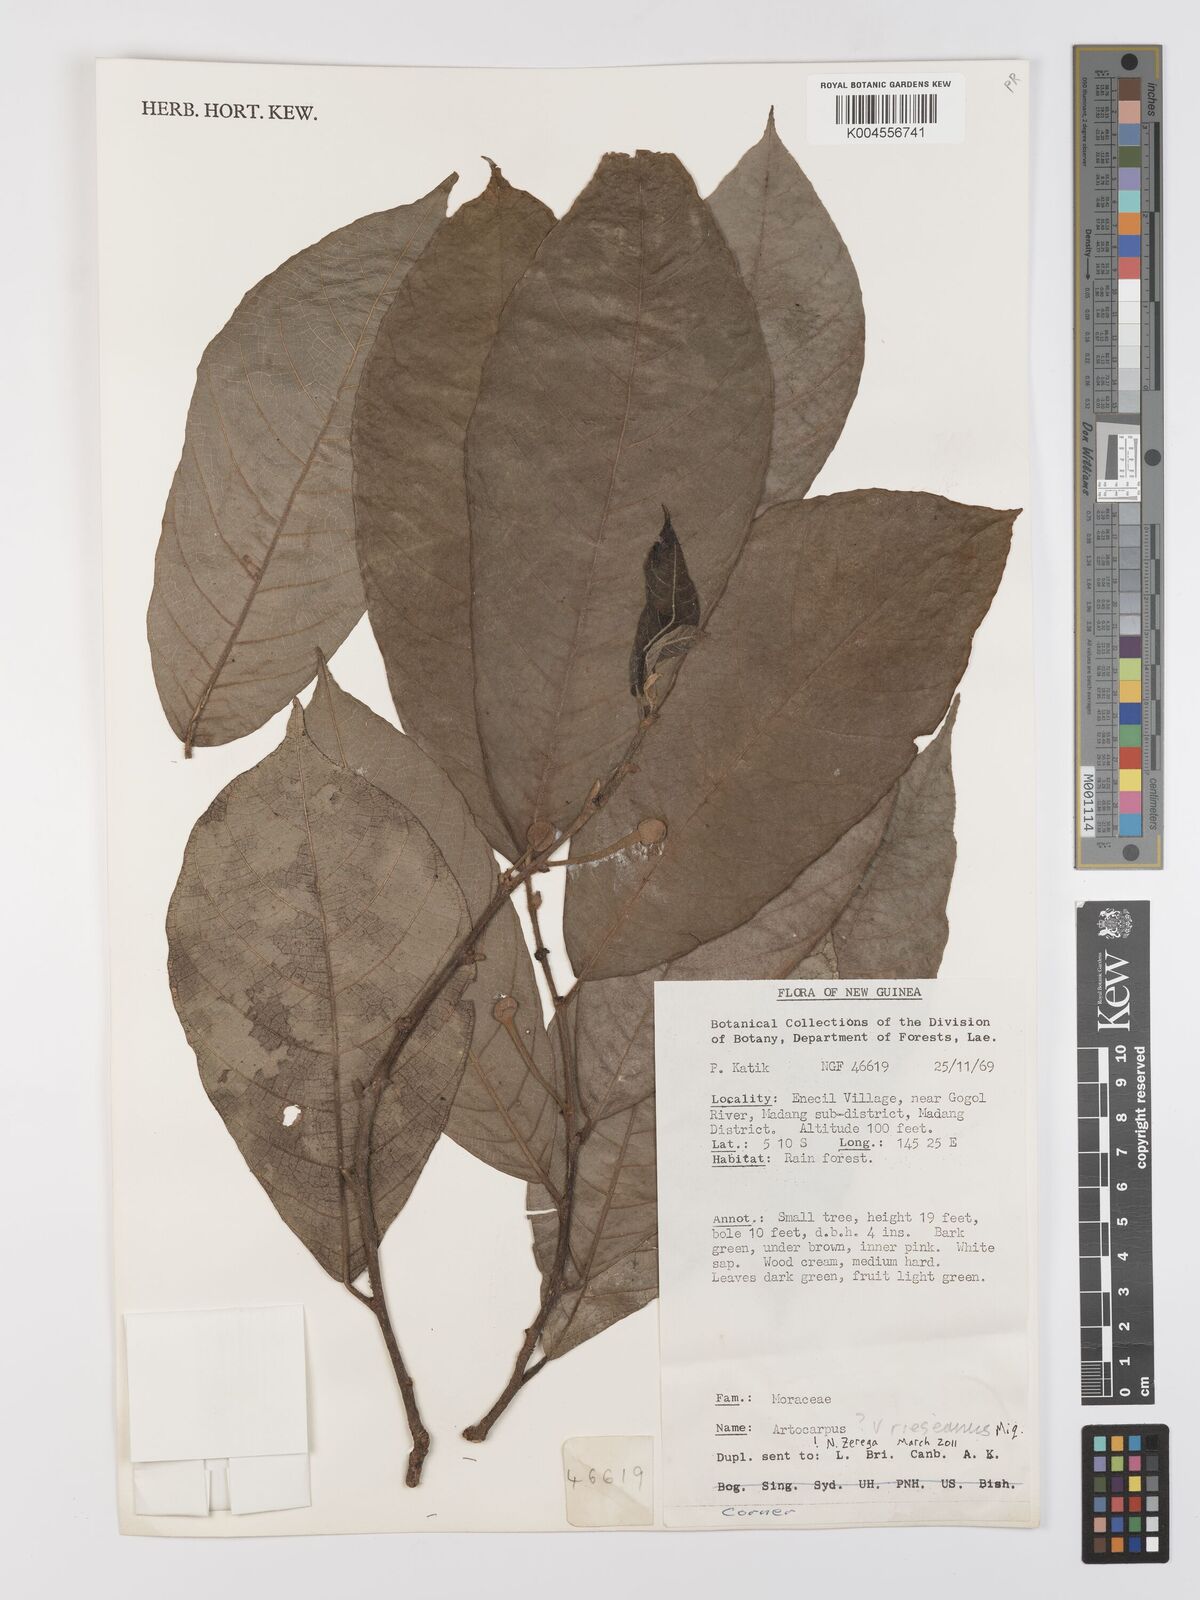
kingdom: Plantae
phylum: Tracheophyta
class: Magnoliopsida
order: Rosales
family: Moraceae
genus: Artocarpus
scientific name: Artocarpus vrieseanus
